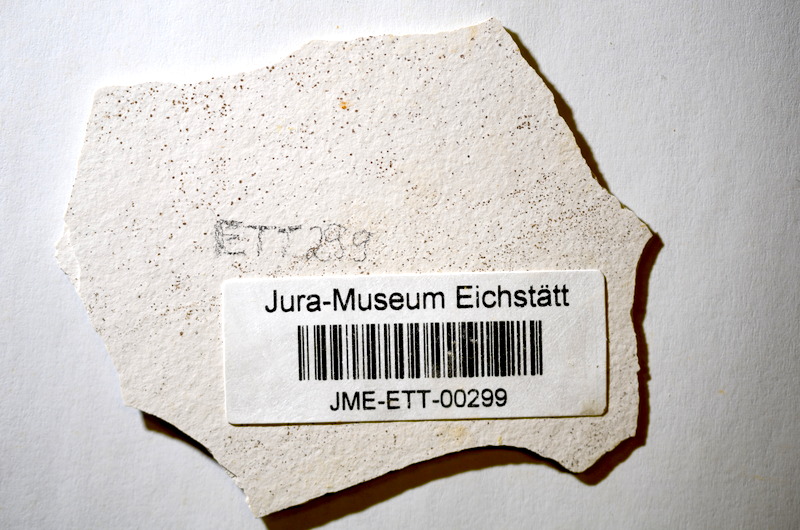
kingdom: Animalia
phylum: Chordata
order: Salmoniformes
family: Orthogonikleithridae
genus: Orthogonikleithrus
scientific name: Orthogonikleithrus hoelli
